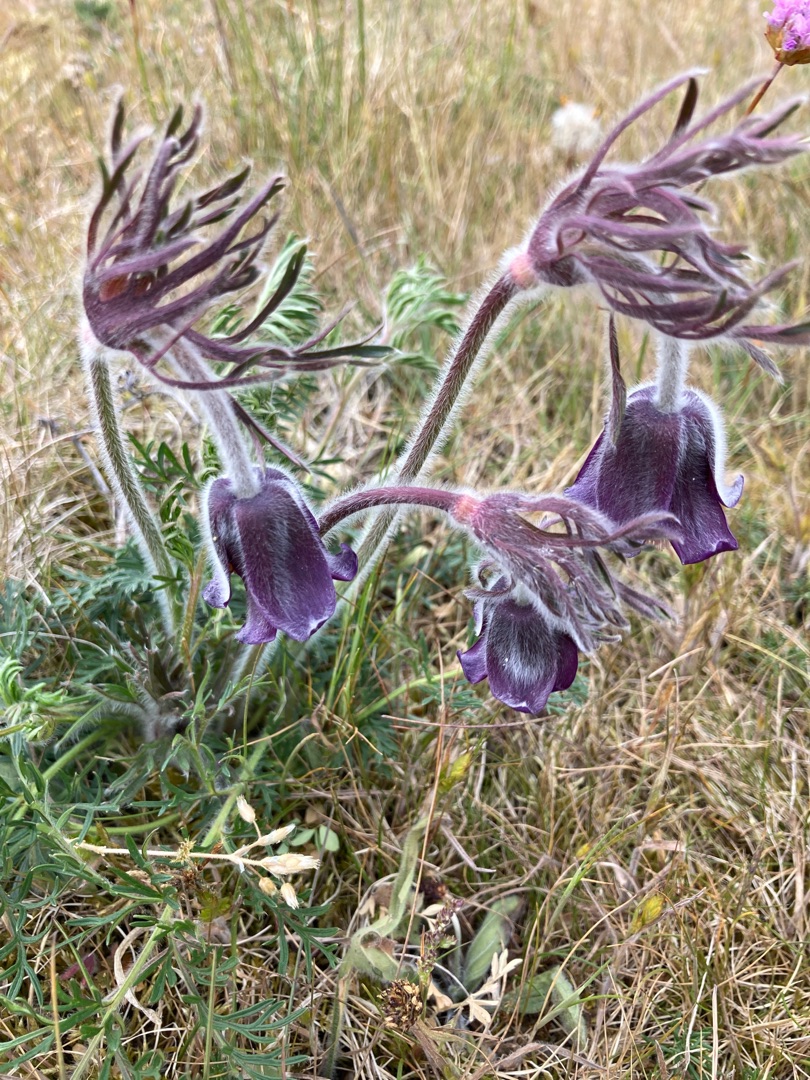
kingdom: Plantae
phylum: Tracheophyta
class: Magnoliopsida
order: Ranunculales
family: Ranunculaceae
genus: Pulsatilla
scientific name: Pulsatilla pratensis
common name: Nikkende kobjælde
